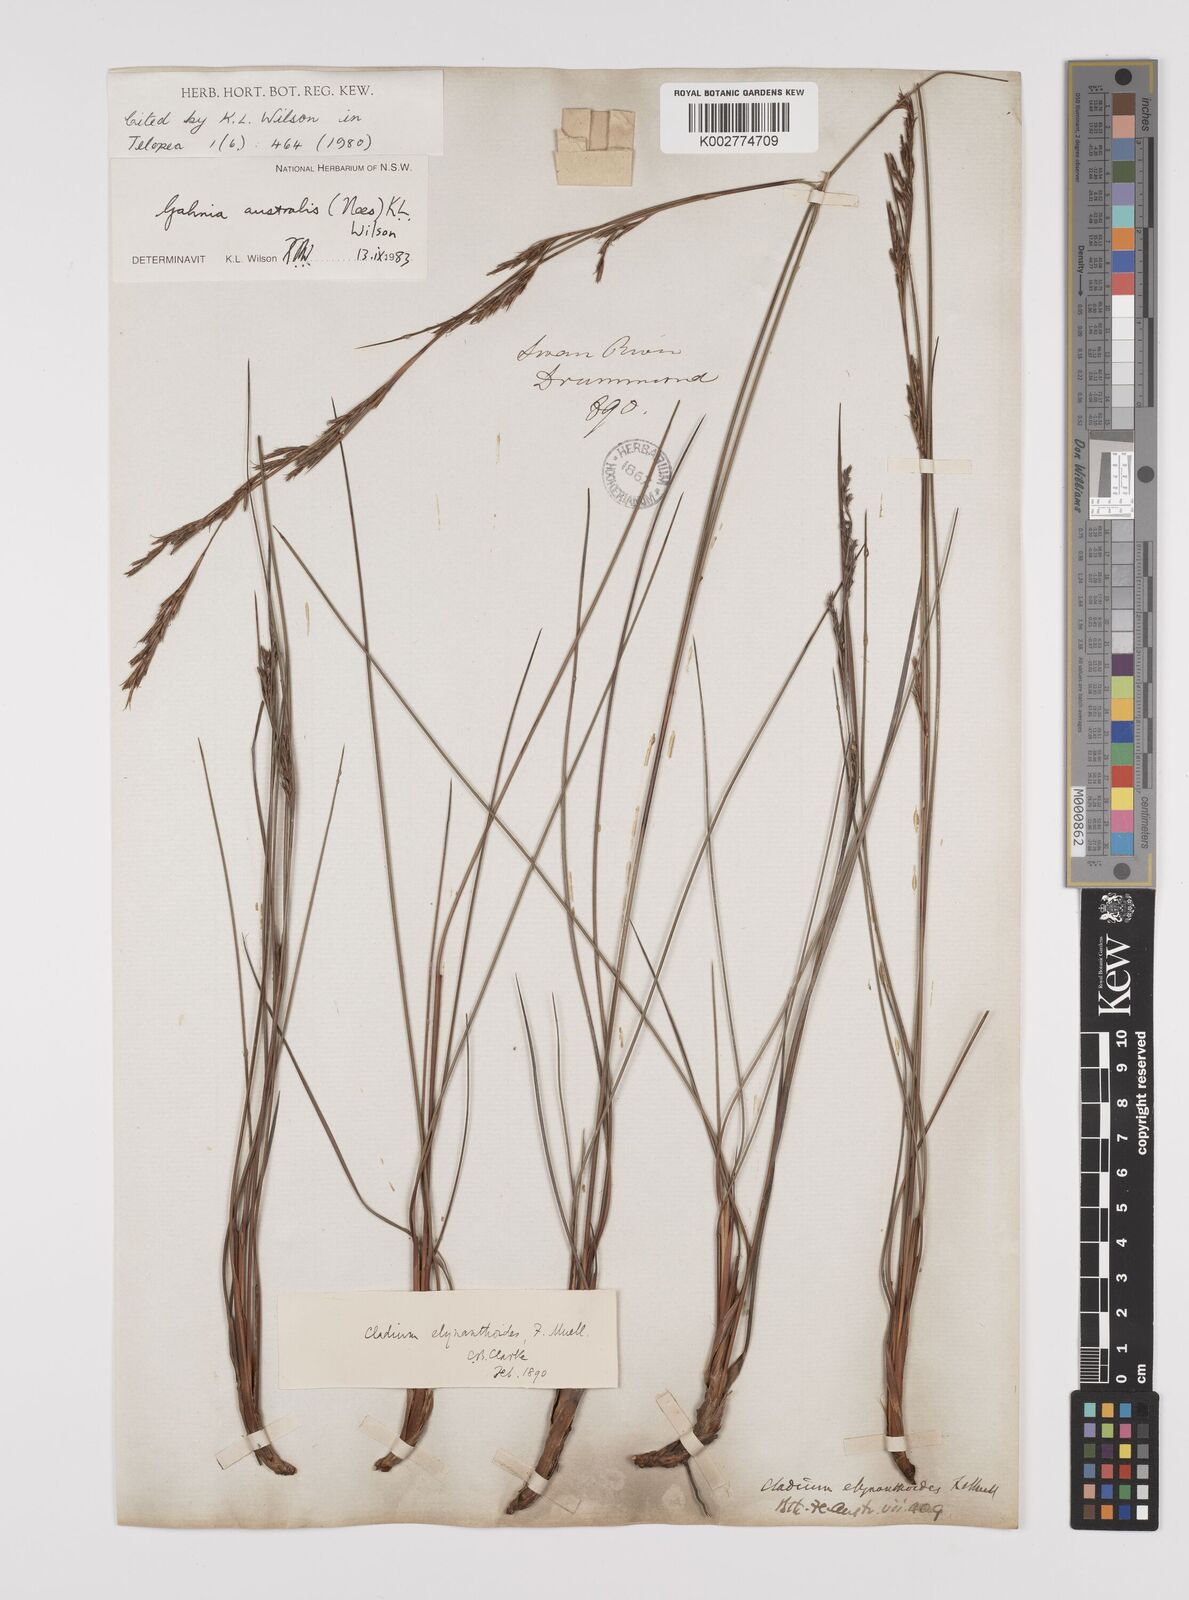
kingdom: Plantae
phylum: Tracheophyta
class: Liliopsida
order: Poales
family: Cyperaceae
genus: Gahnia
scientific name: Gahnia australis
